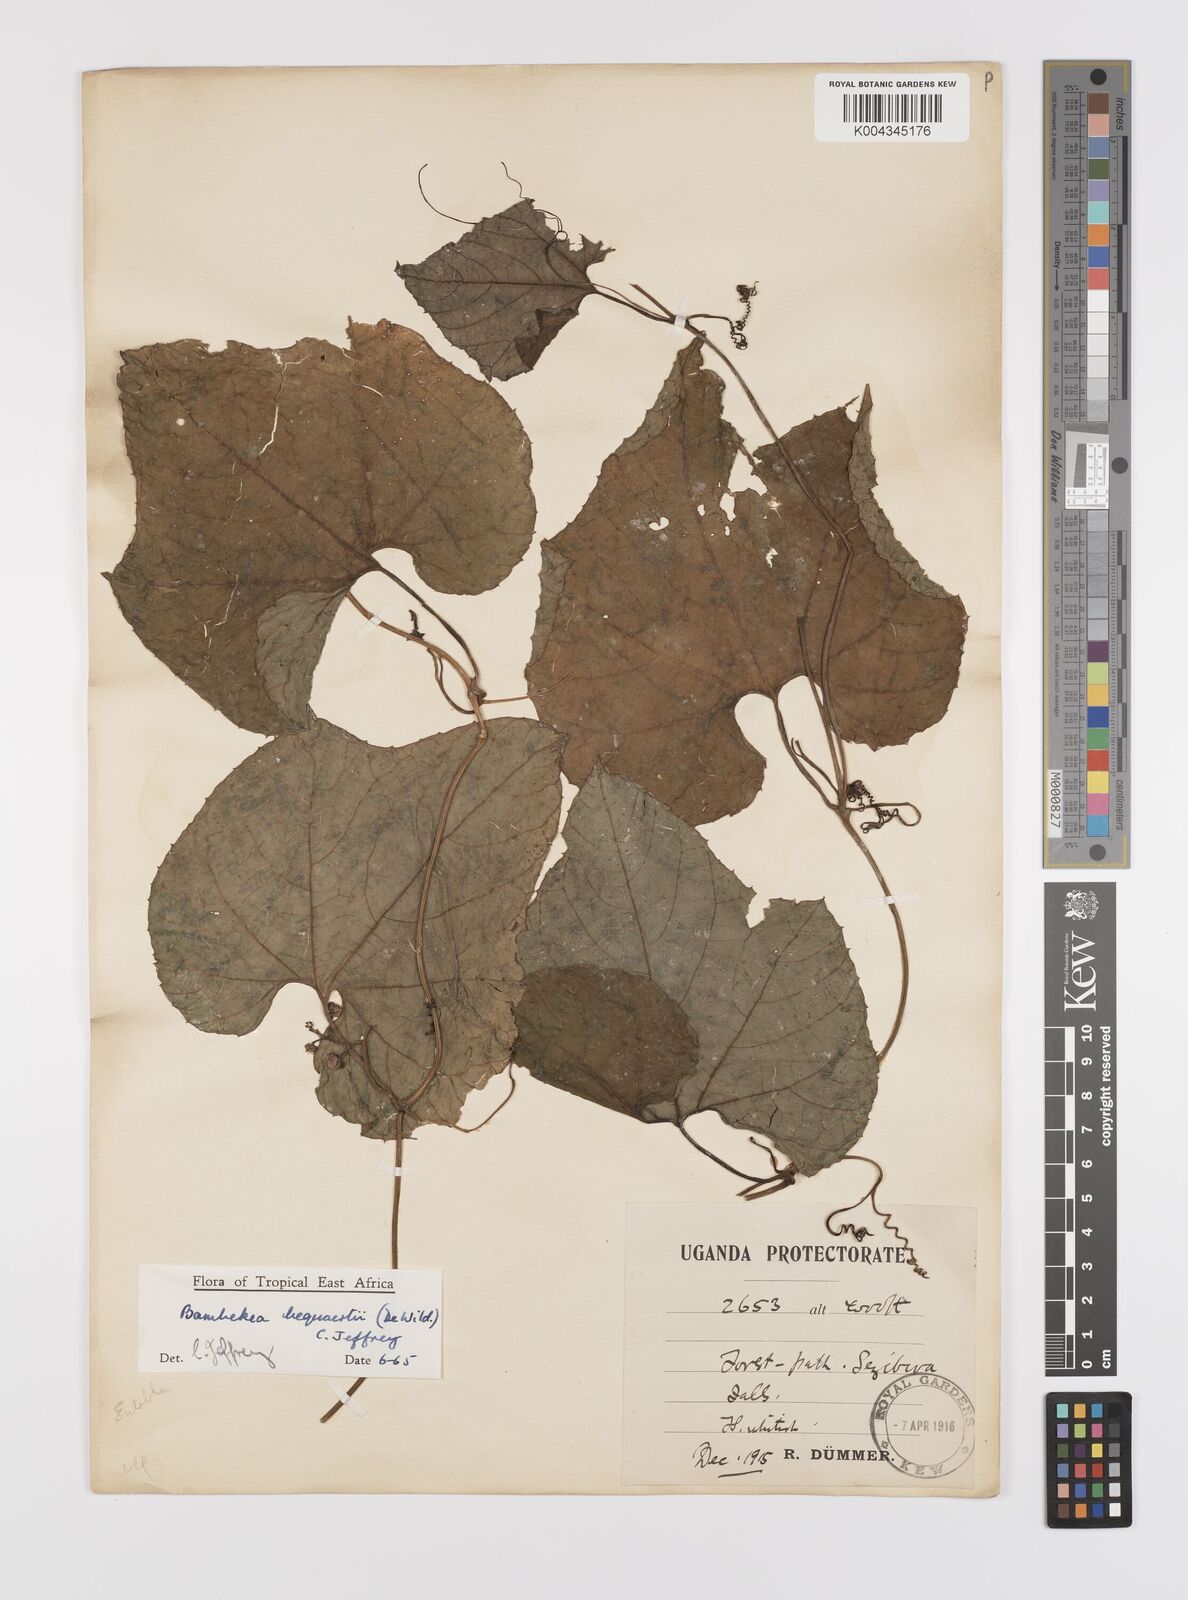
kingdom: Plantae
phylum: Tracheophyta
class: Magnoliopsida
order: Cucurbitales
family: Cucurbitaceae
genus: Bambekea
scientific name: Bambekea racemosa
